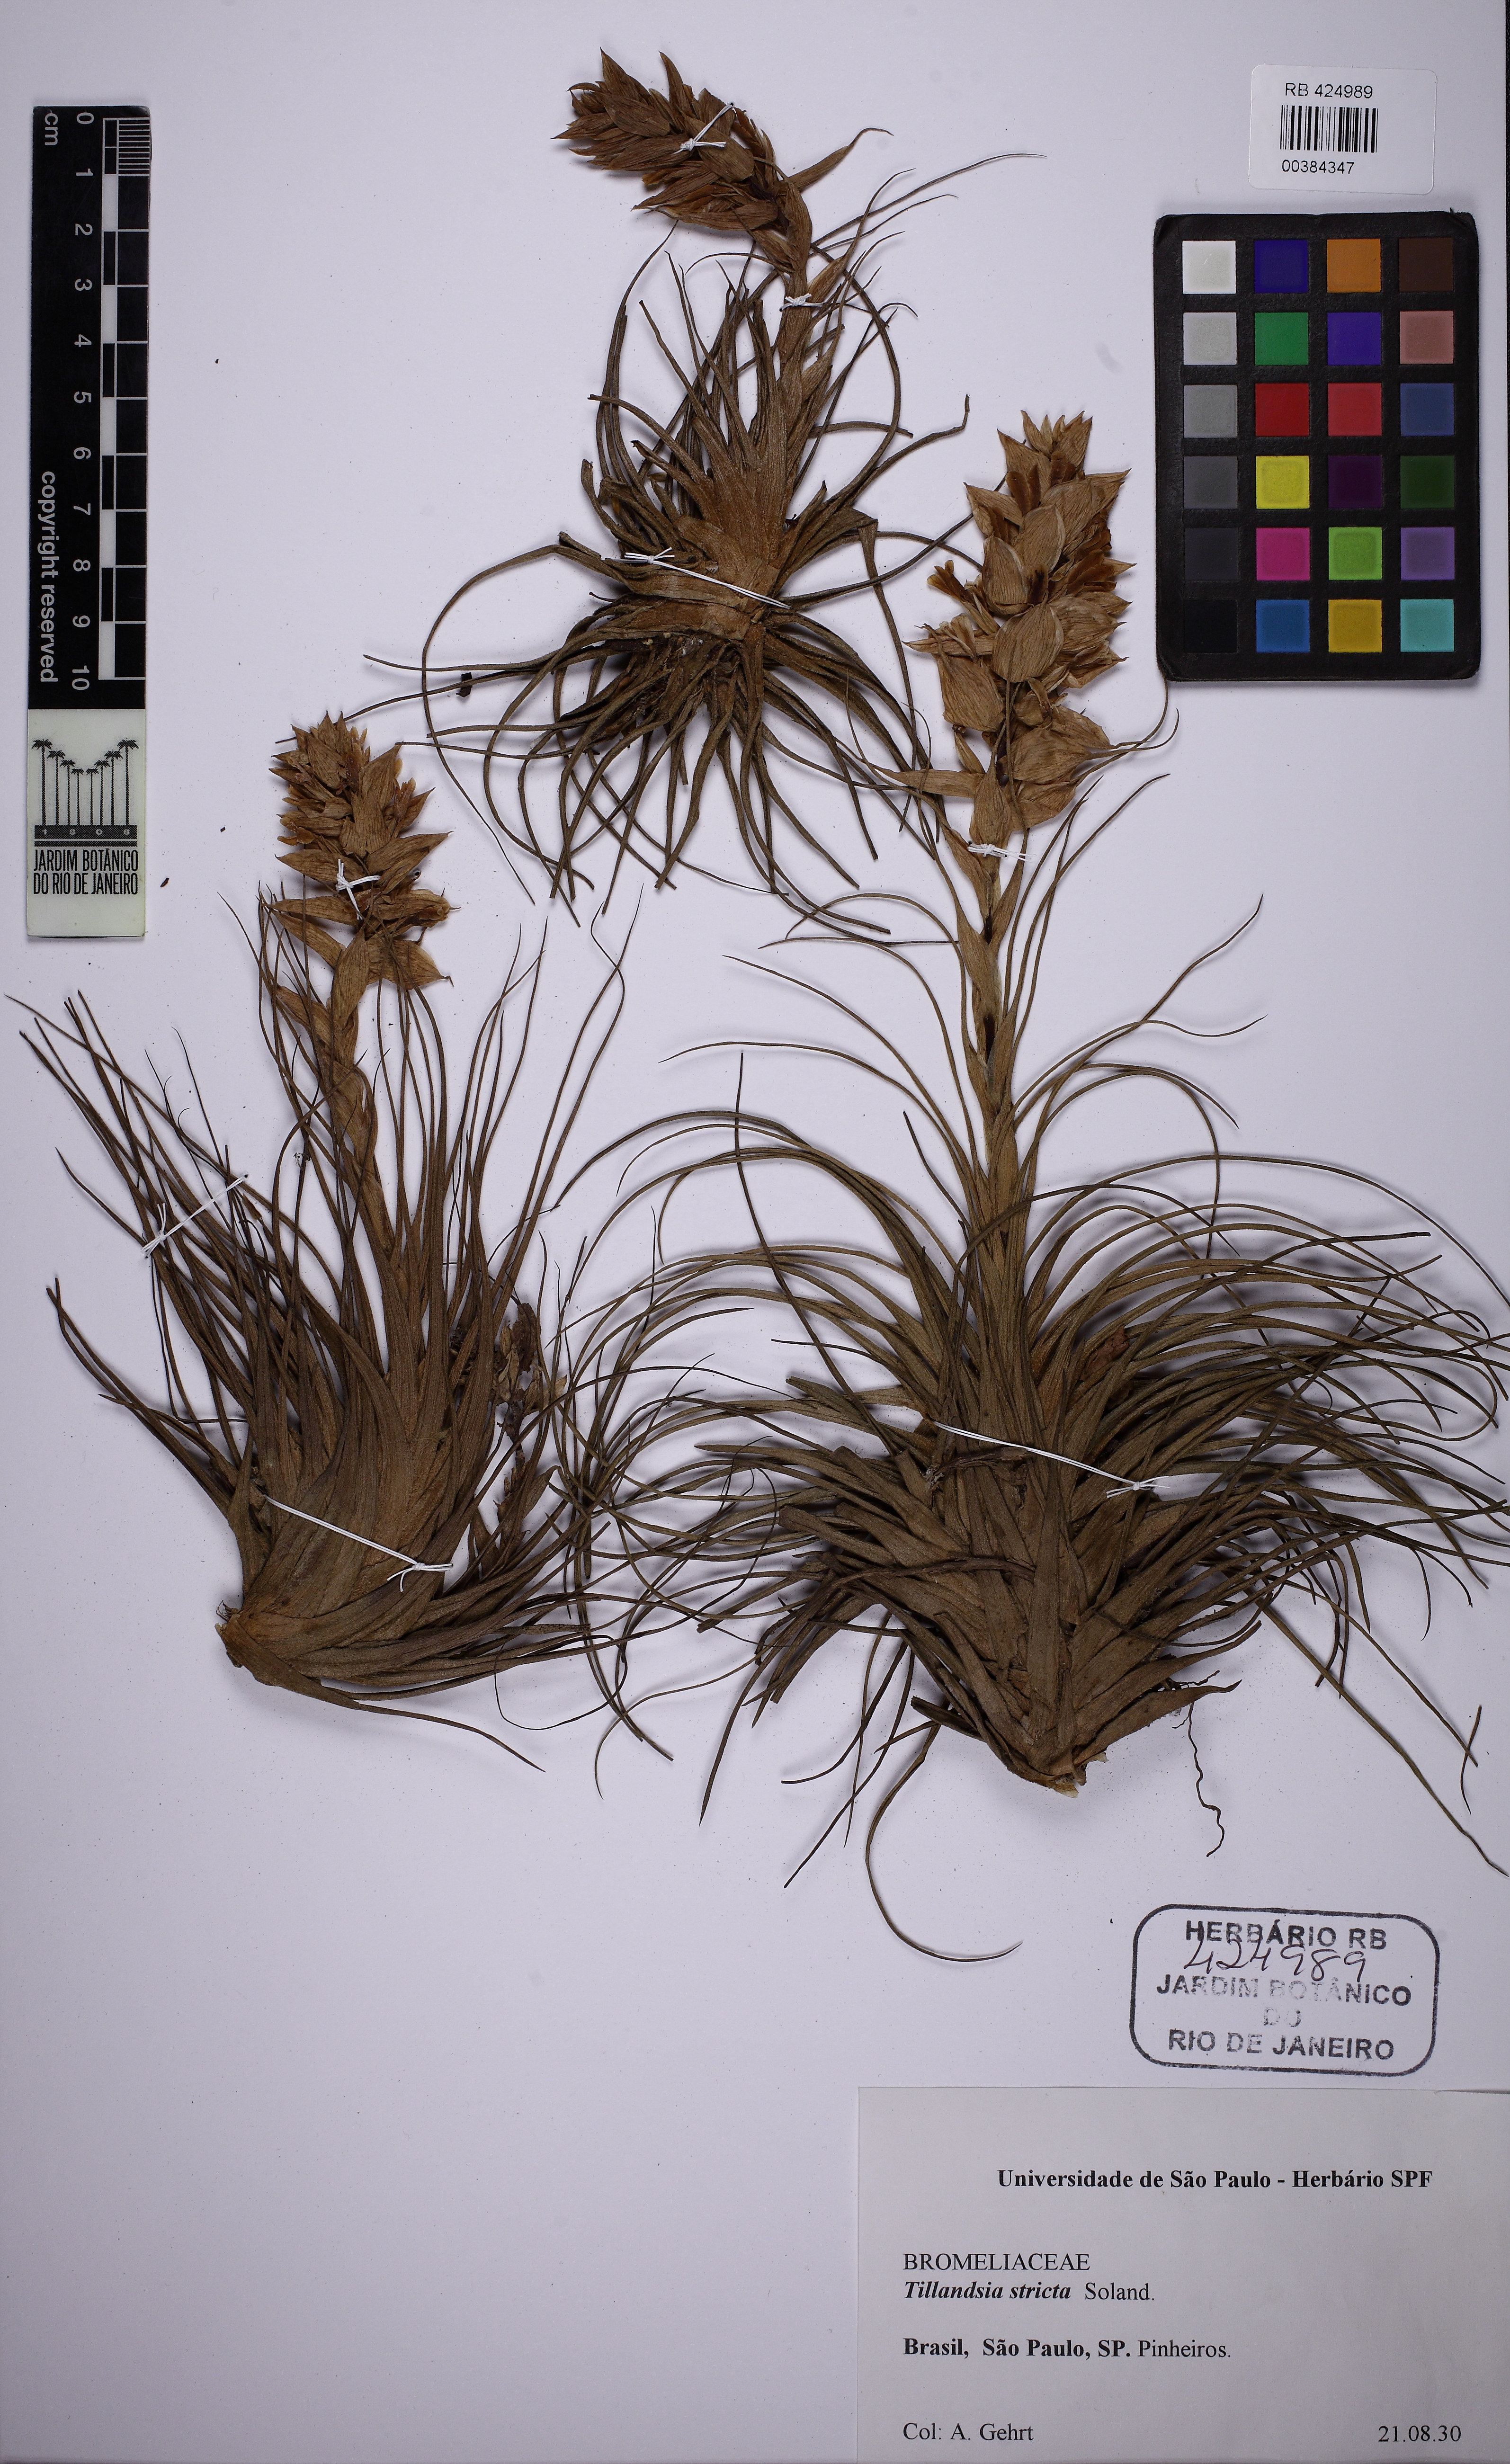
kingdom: Plantae
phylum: Tracheophyta
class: Liliopsida
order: Poales
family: Bromeliaceae
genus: Tillandsia
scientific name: Tillandsia stricta
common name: Airplant
